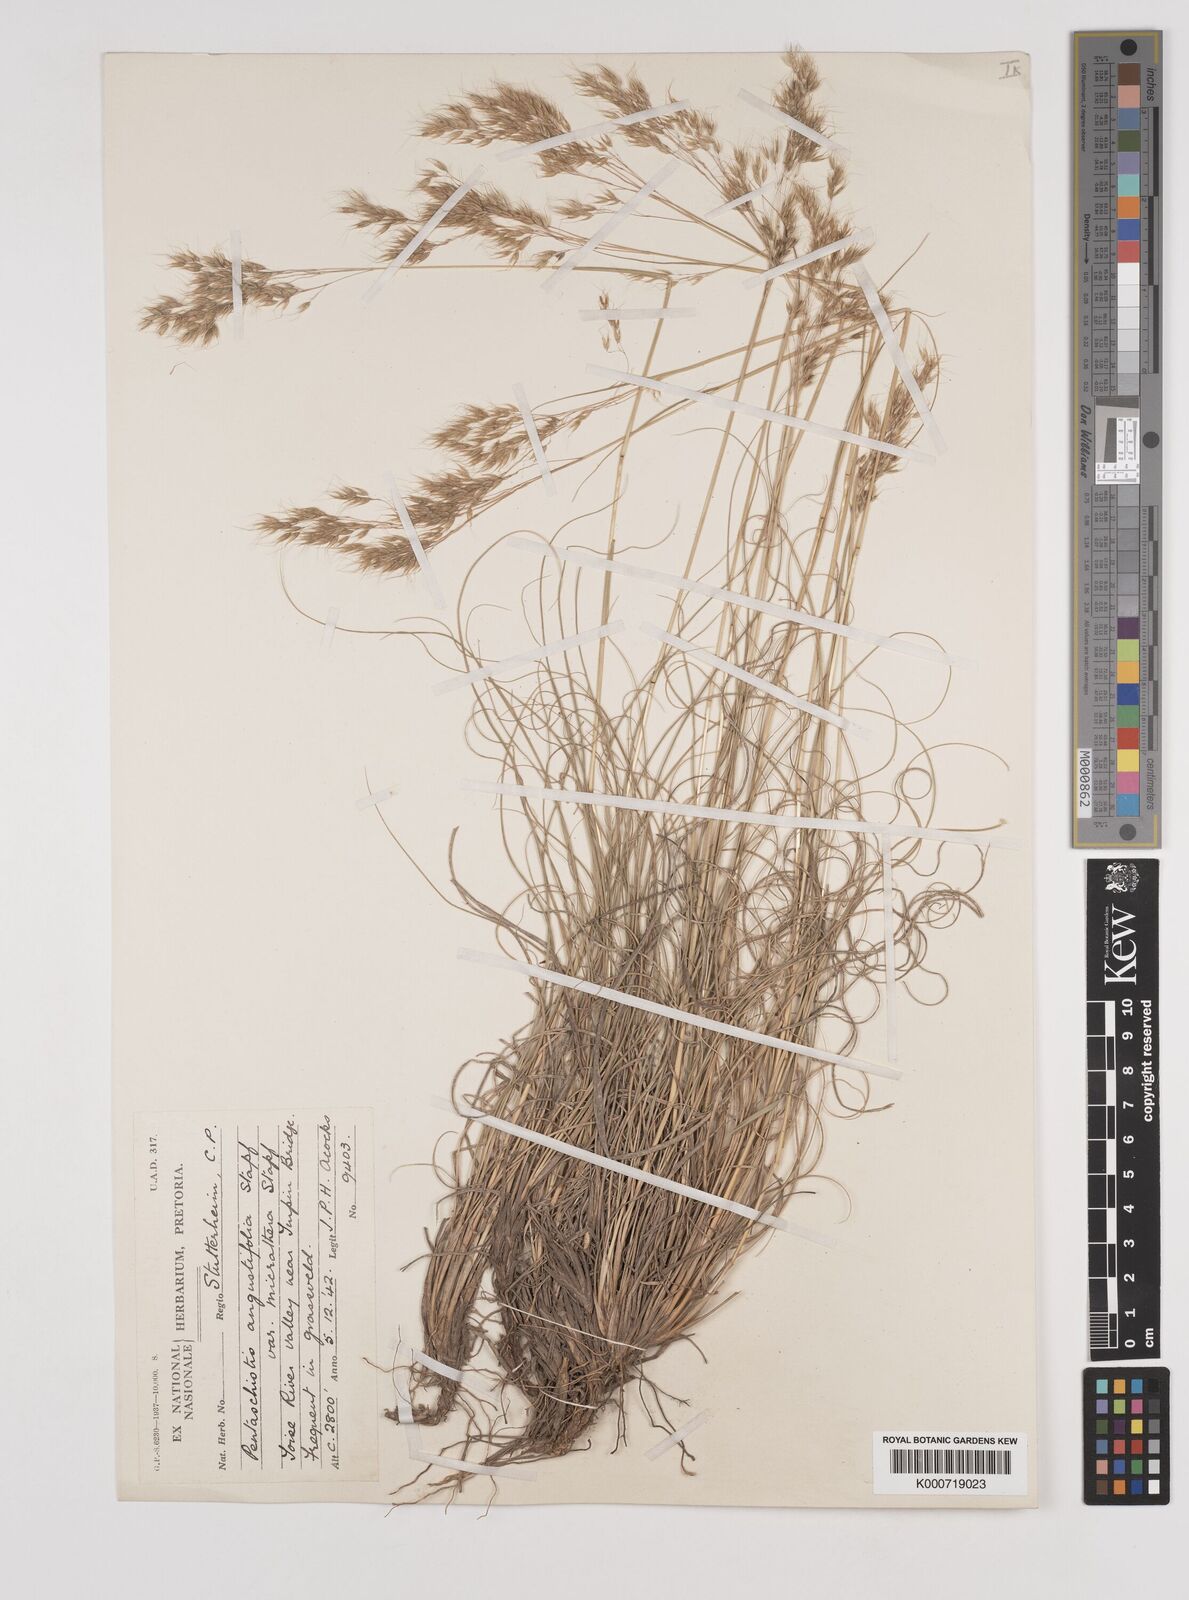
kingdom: Plantae
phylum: Tracheophyta
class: Liliopsida
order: Poales
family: Poaceae
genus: Pentameris
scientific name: Pentameris pallida
